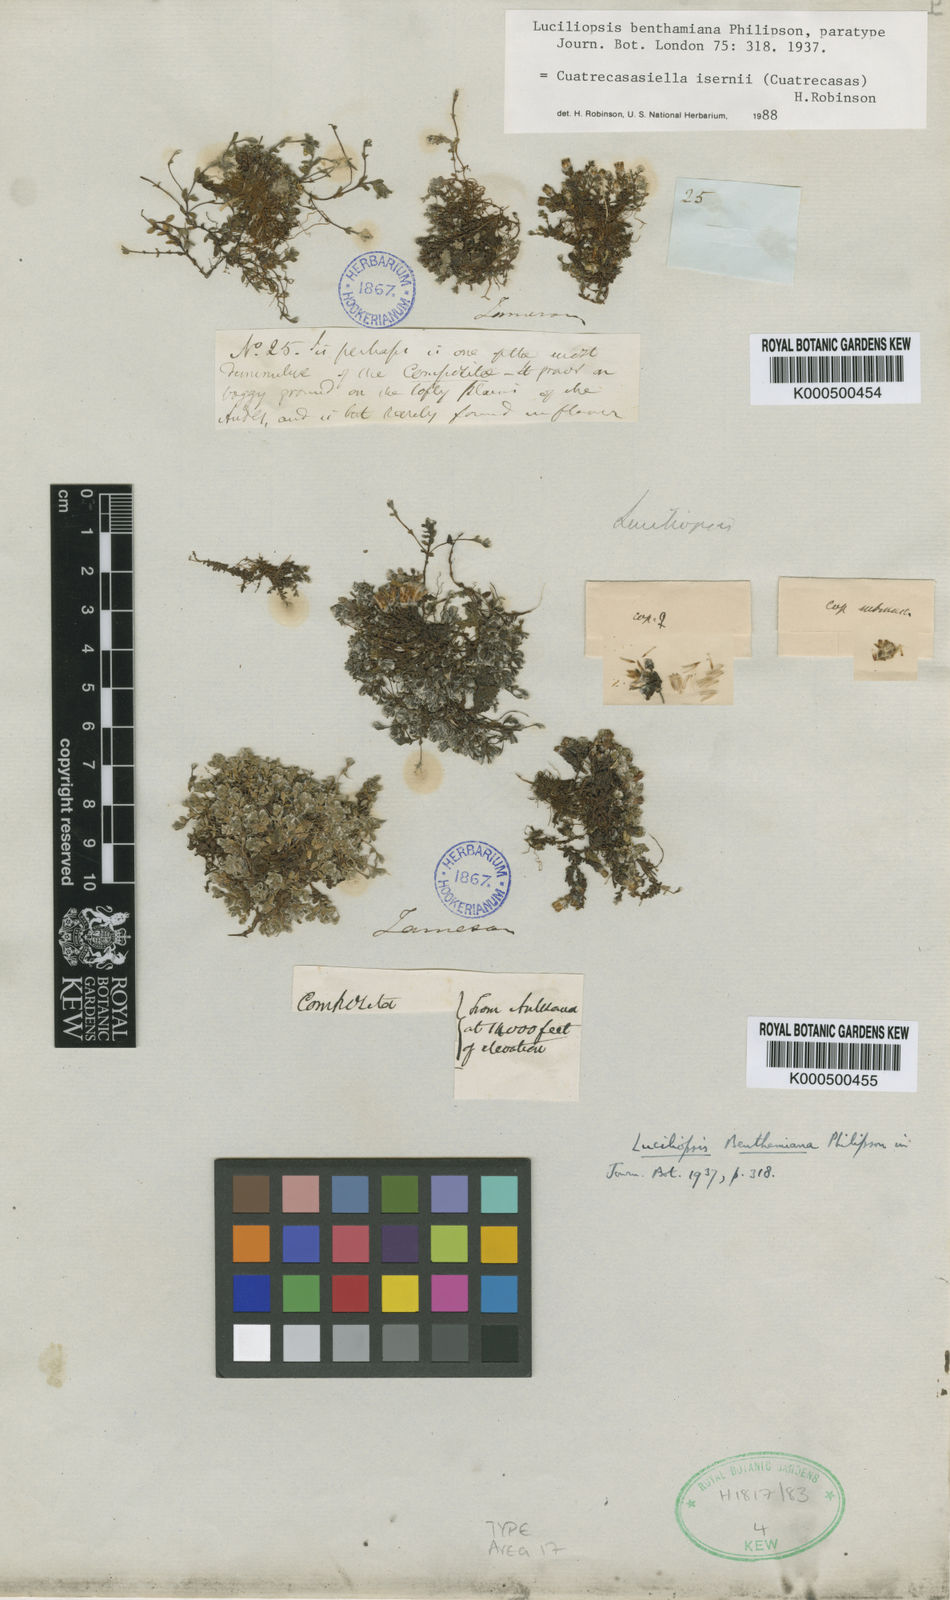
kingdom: Plantae
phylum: Tracheophyta
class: Magnoliopsida
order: Asterales
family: Asteraceae
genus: Cuatrecasasiella
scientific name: Cuatrecasasiella isernii
